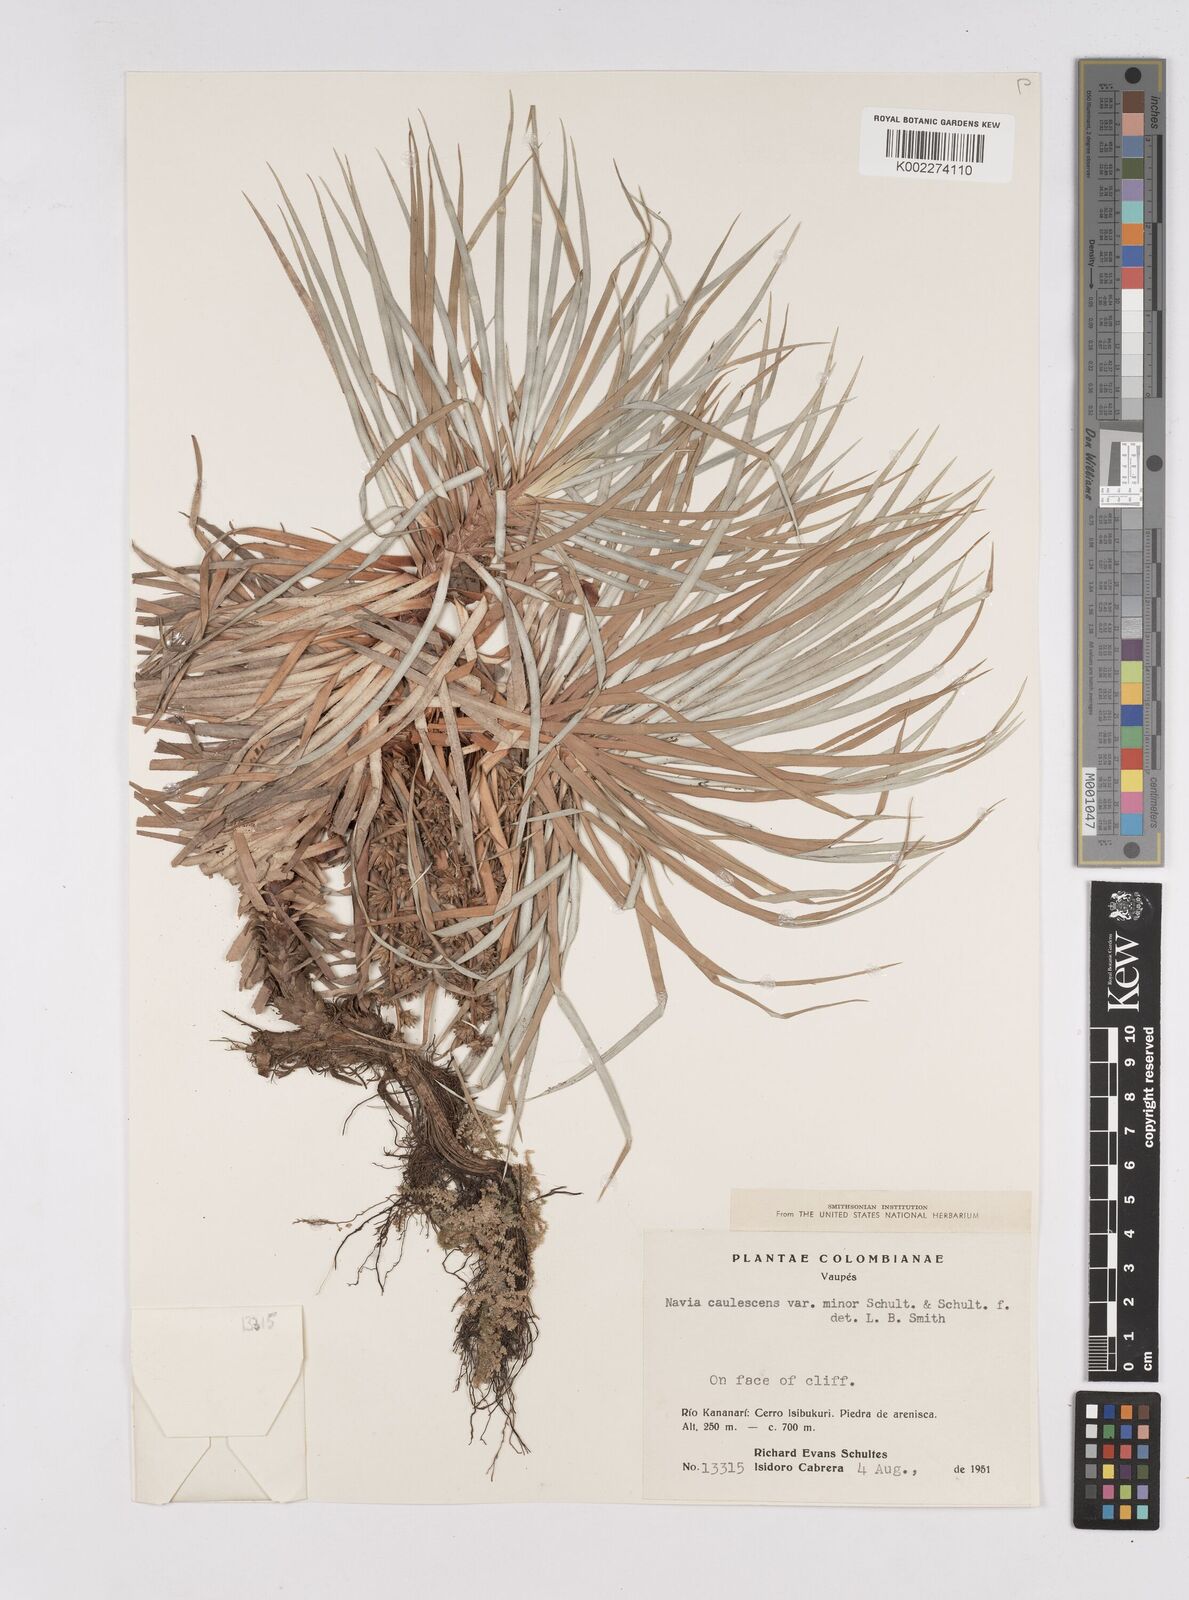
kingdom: Plantae
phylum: Tracheophyta
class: Liliopsida
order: Poales
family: Bromeliaceae
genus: Navia
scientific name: Navia caulescens
